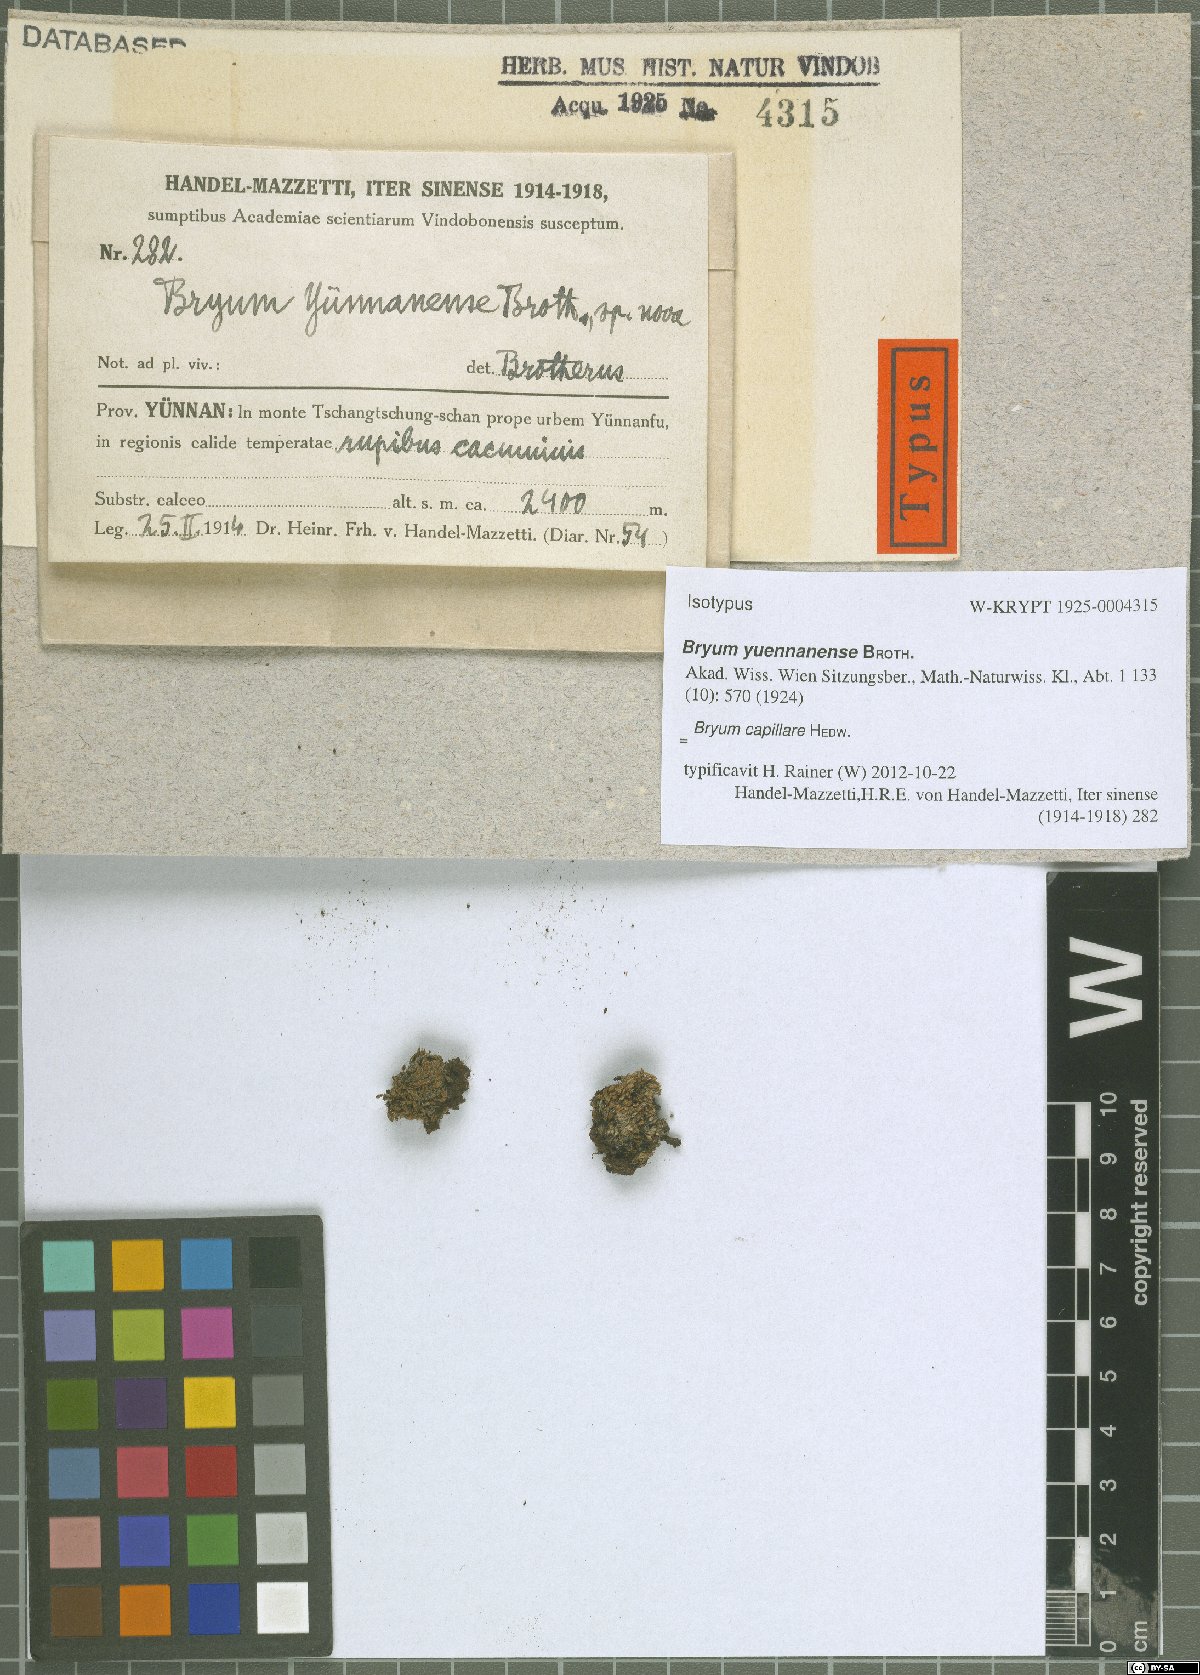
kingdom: Plantae
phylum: Bryophyta
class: Bryopsida
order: Bryales
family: Bryaceae
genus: Rosulabryum
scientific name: Rosulabryum capillare
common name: Capillary thread-moss
